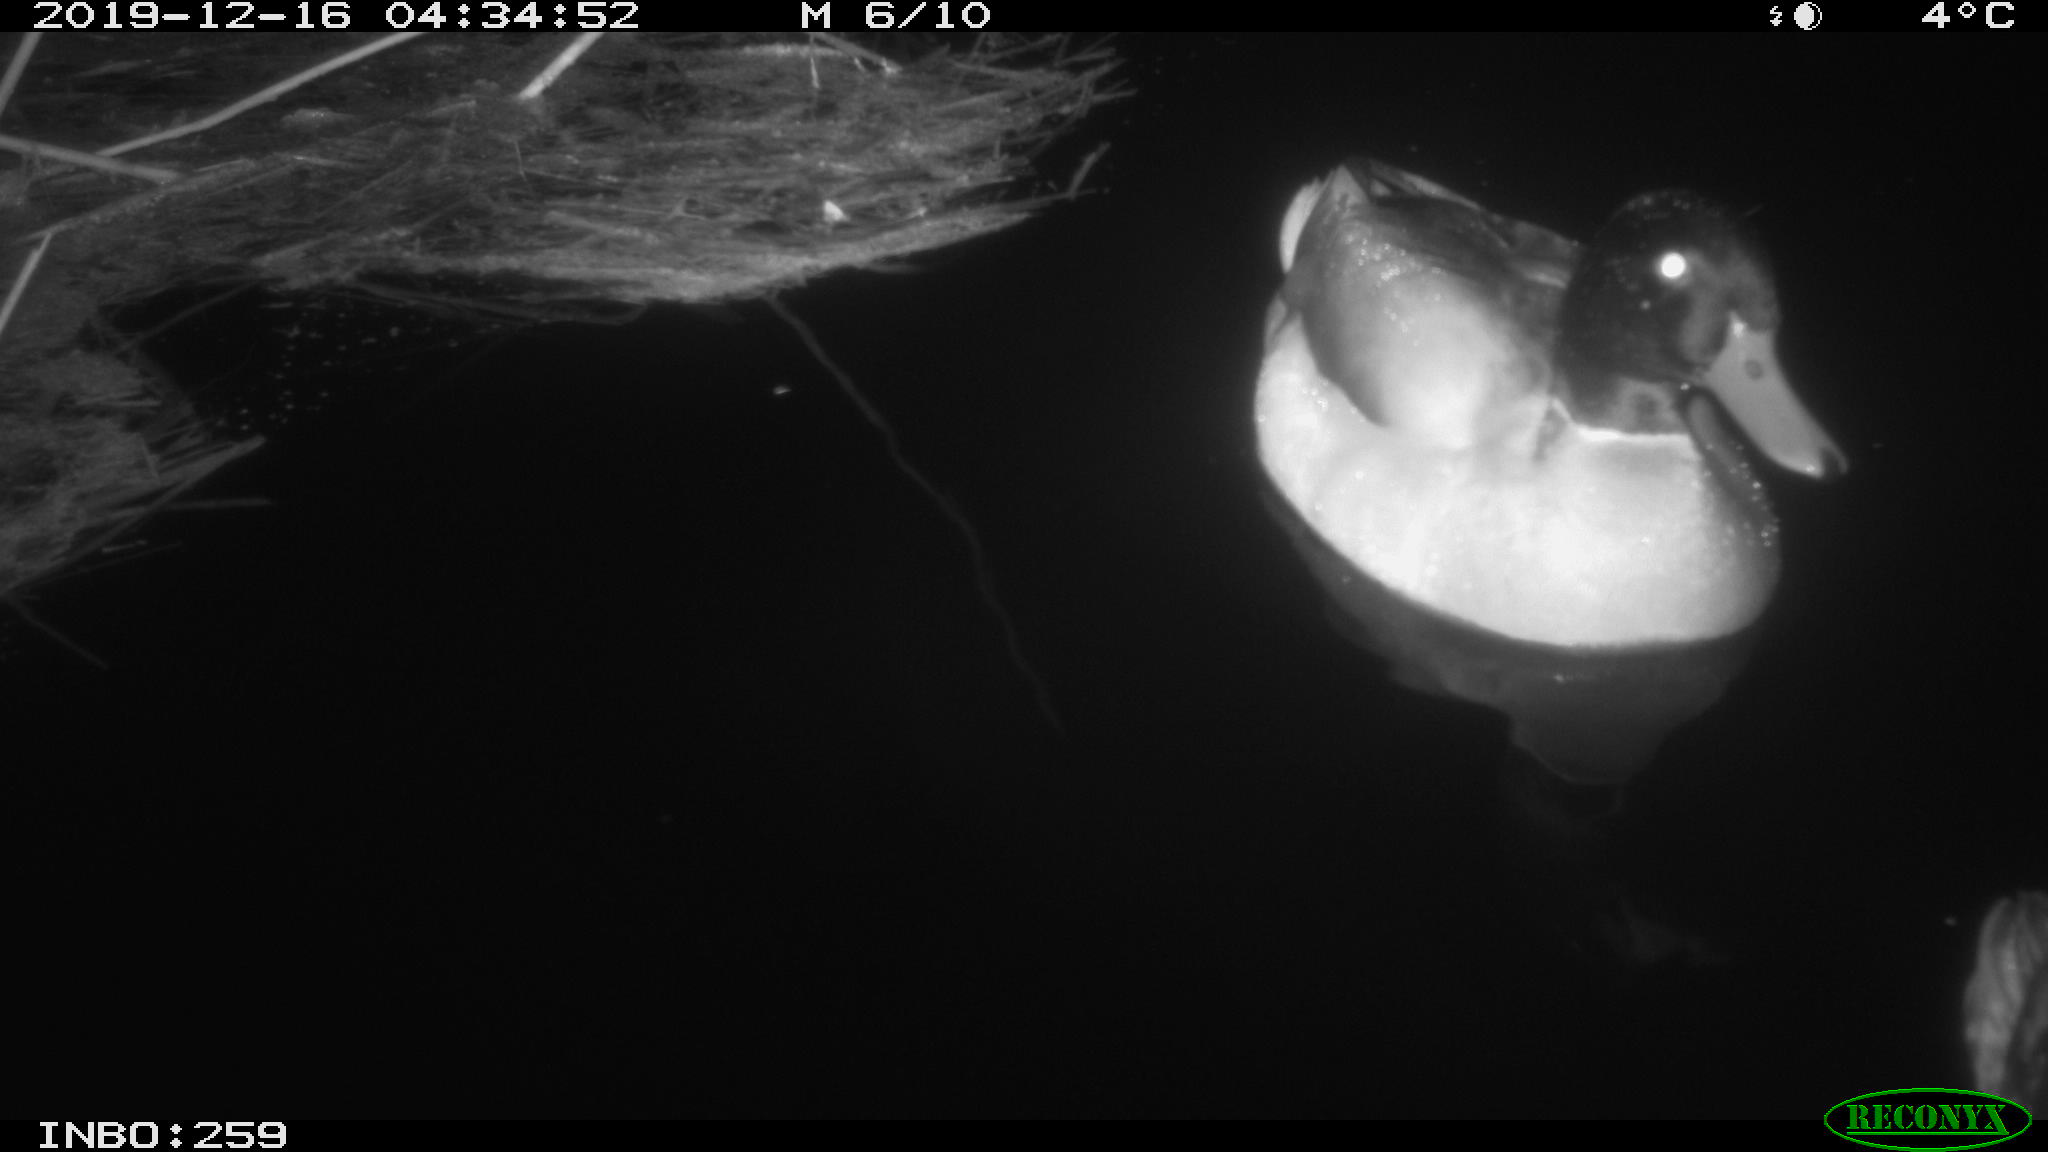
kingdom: Animalia
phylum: Chordata
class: Aves
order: Anseriformes
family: Anatidae
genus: Anas
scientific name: Anas platyrhynchos
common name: Mallard
